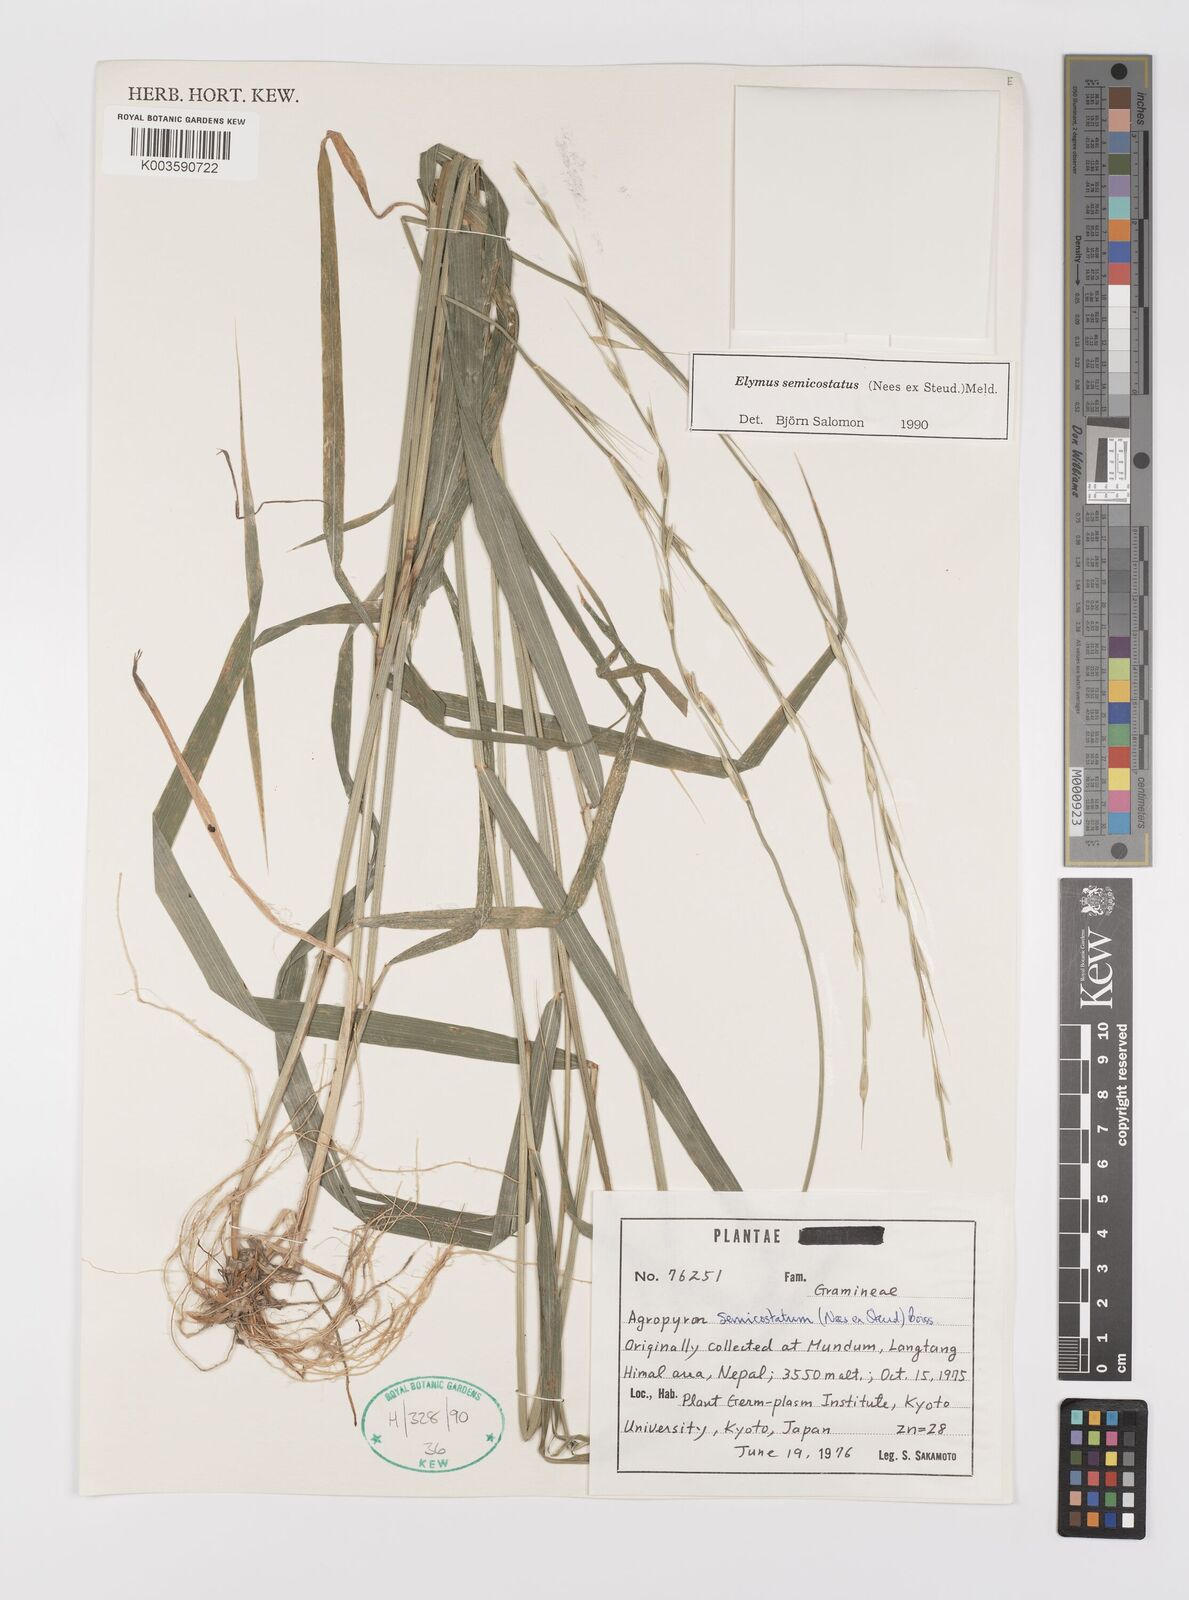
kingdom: Plantae
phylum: Tracheophyta
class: Liliopsida
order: Poales
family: Poaceae
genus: Elymus
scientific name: Elymus semicostatus
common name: Drooping wildrye
